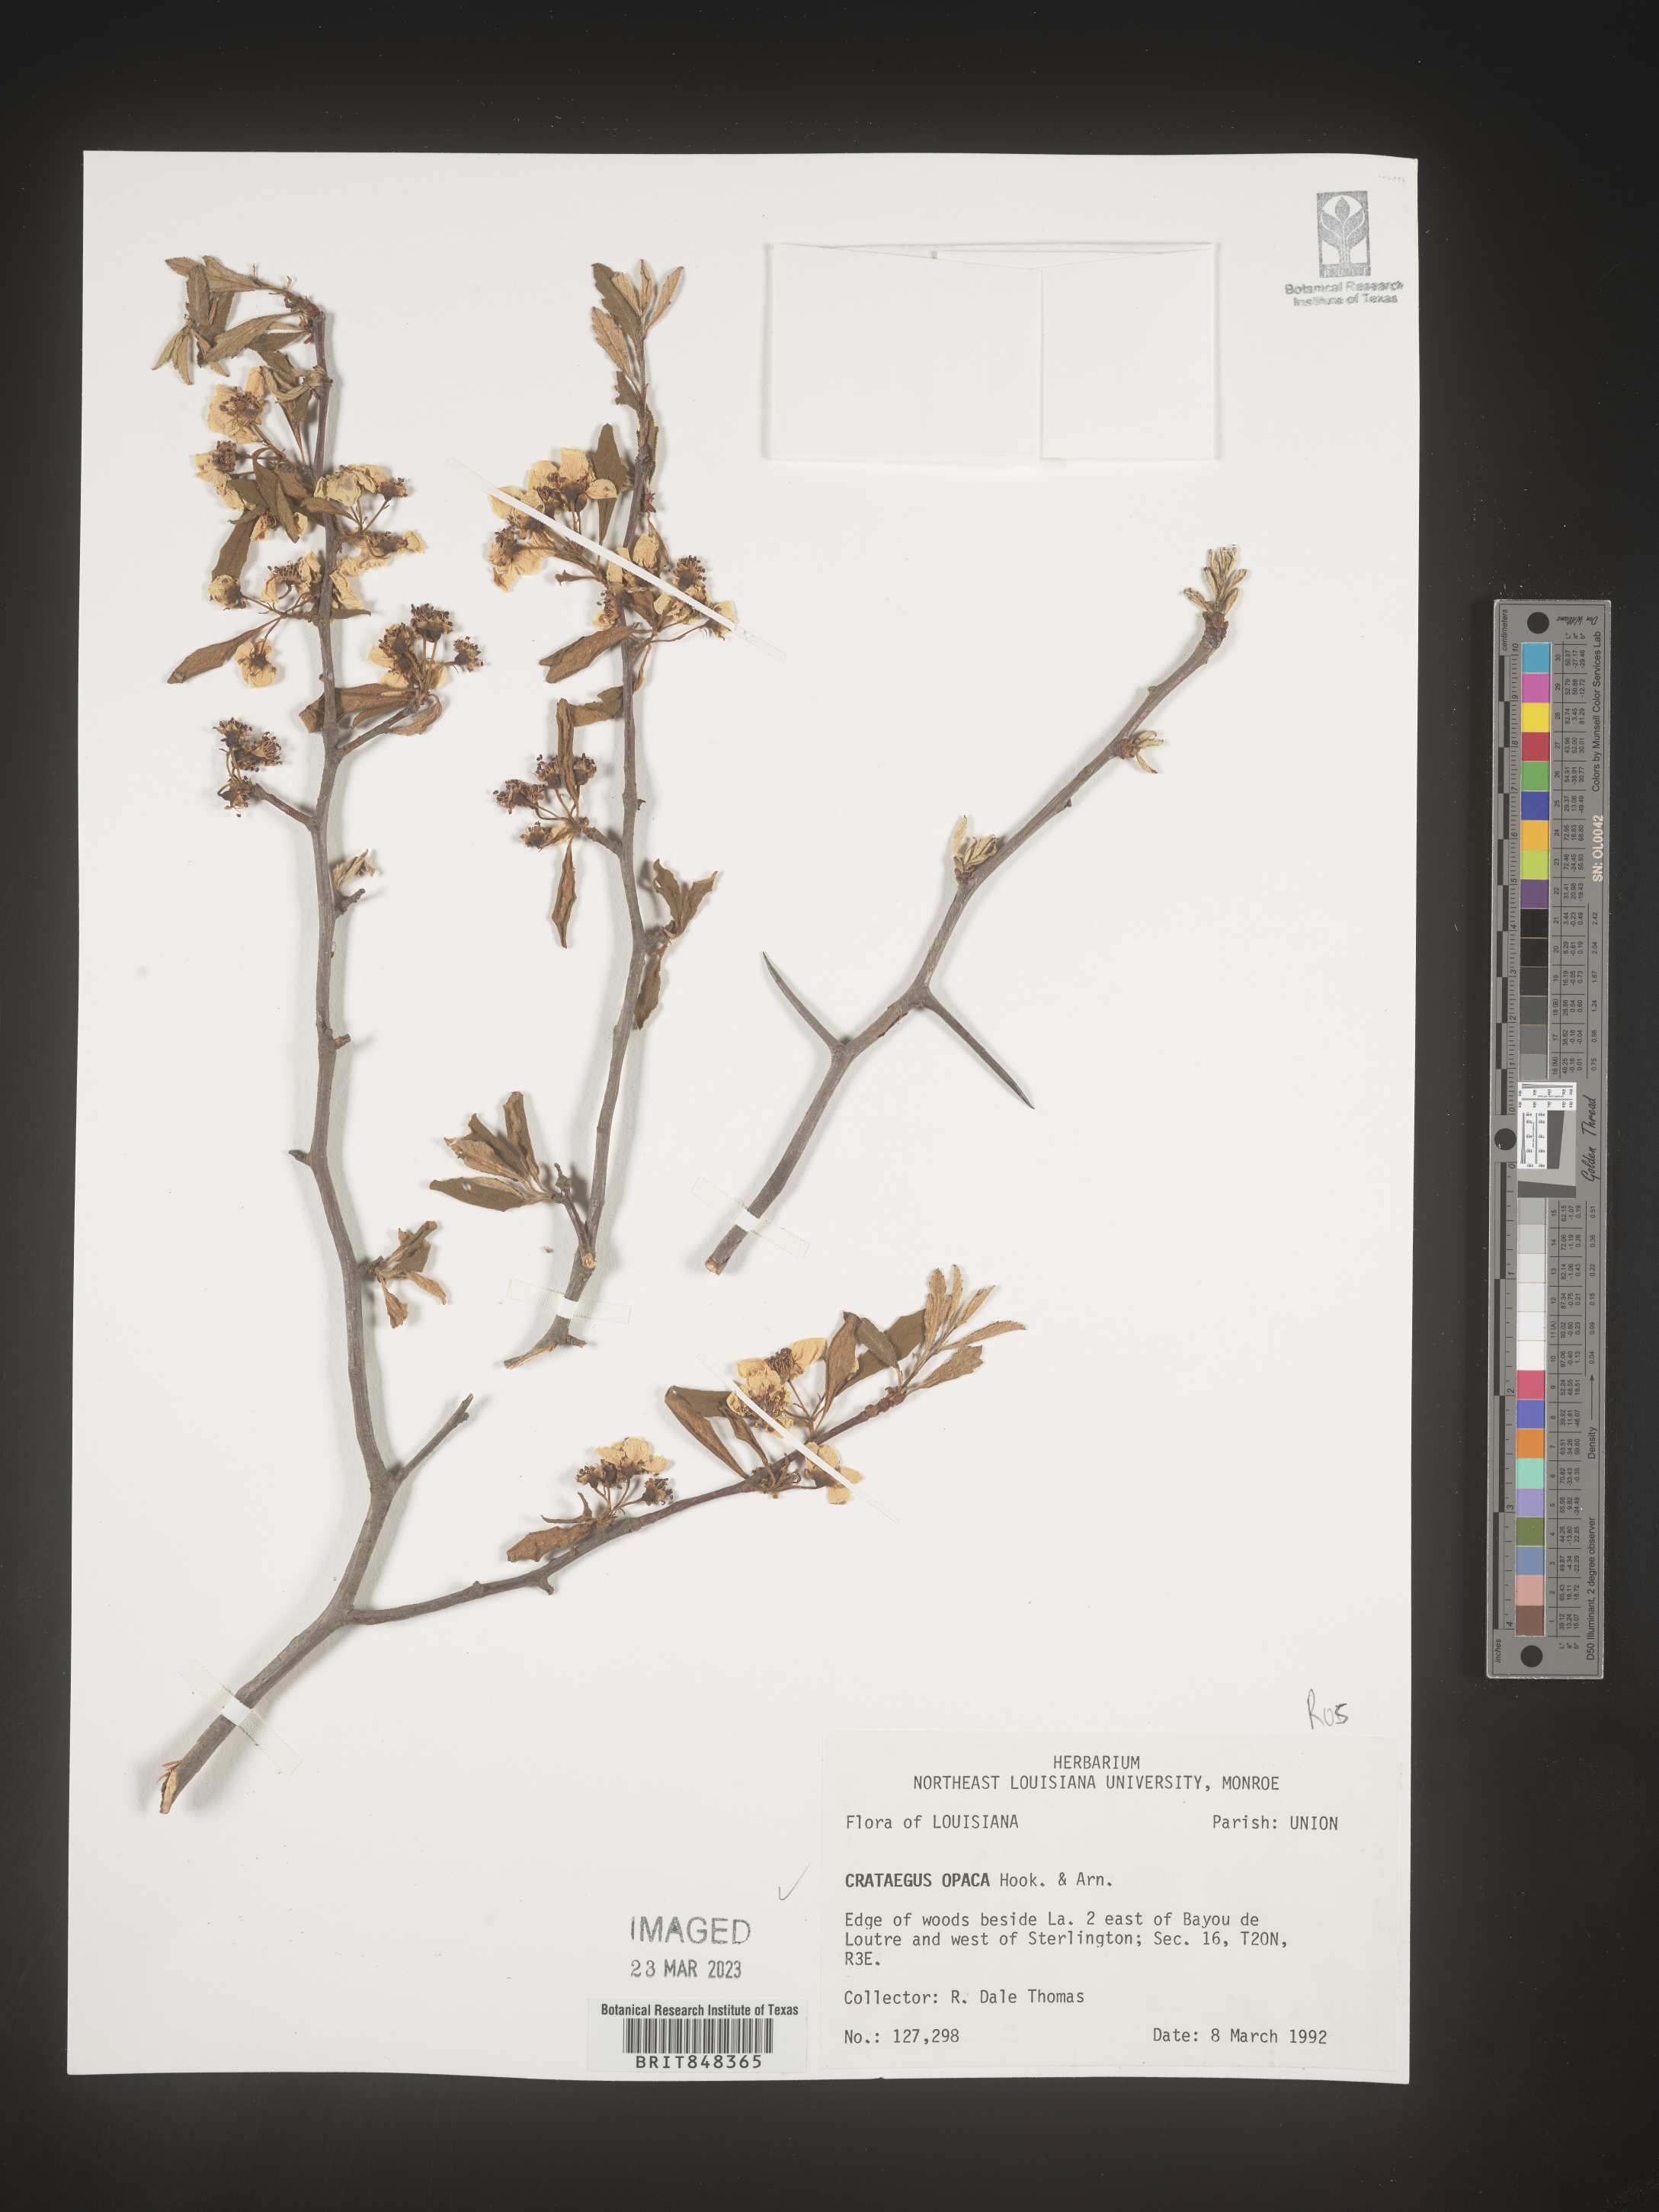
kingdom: Plantae
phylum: Tracheophyta
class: Magnoliopsida
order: Rosales
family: Rosaceae
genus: Crataegus
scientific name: Crataegus opaca
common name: Apple haw
